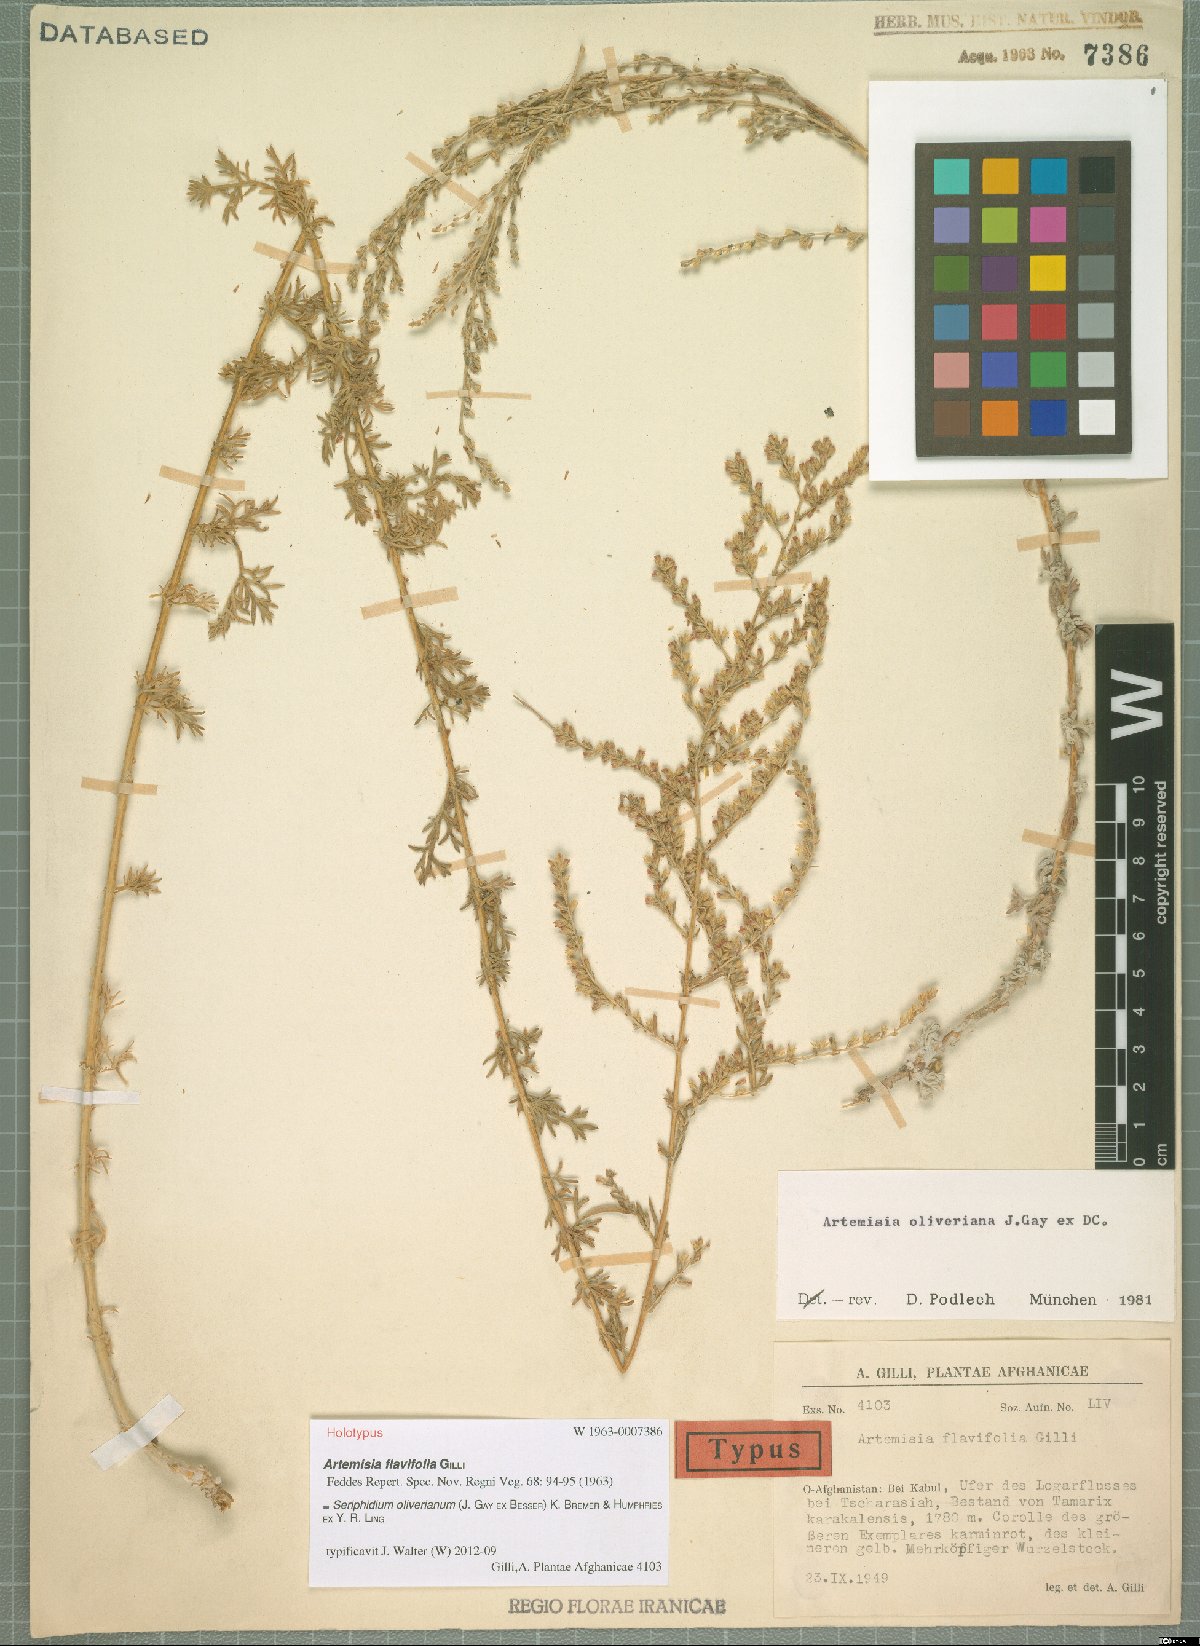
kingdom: Plantae
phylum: Tracheophyta
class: Magnoliopsida
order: Asterales
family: Asteraceae
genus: Artemisia
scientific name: Artemisia oliveriana
